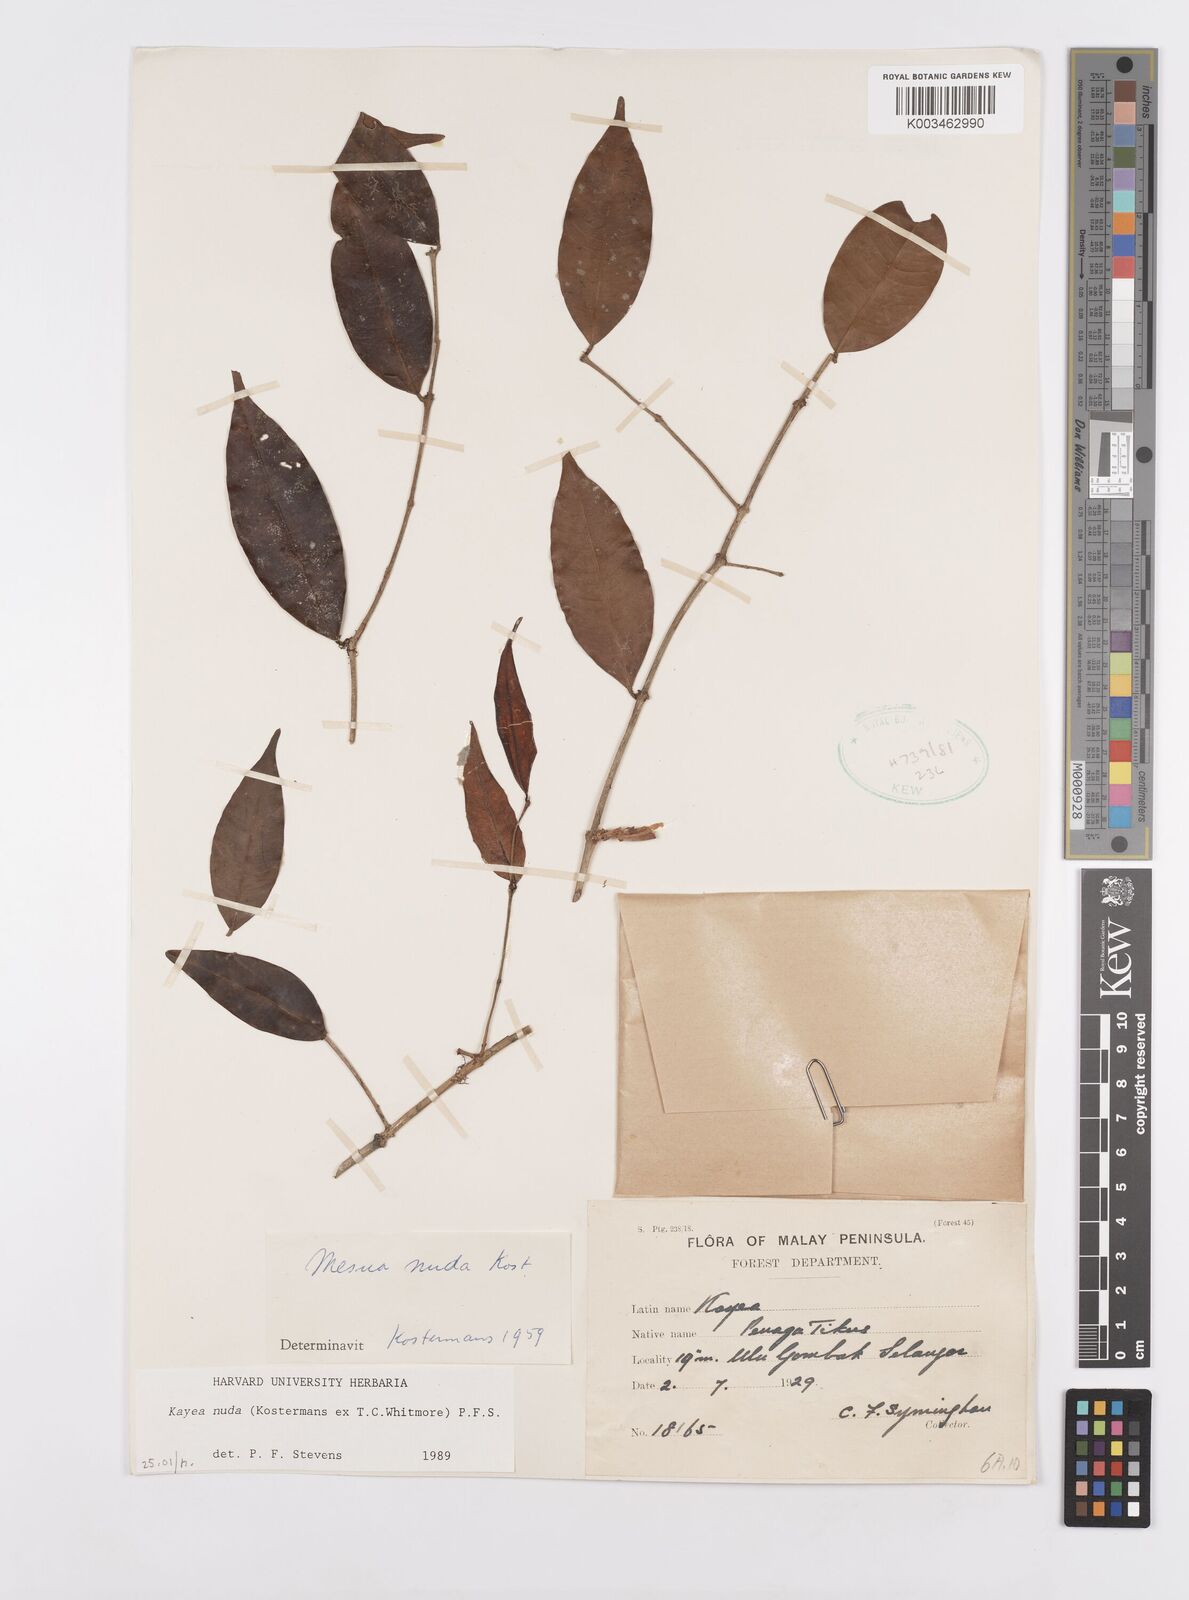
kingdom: Plantae
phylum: Tracheophyta
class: Magnoliopsida
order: Malpighiales
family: Calophyllaceae
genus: Kayea
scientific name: Kayea
